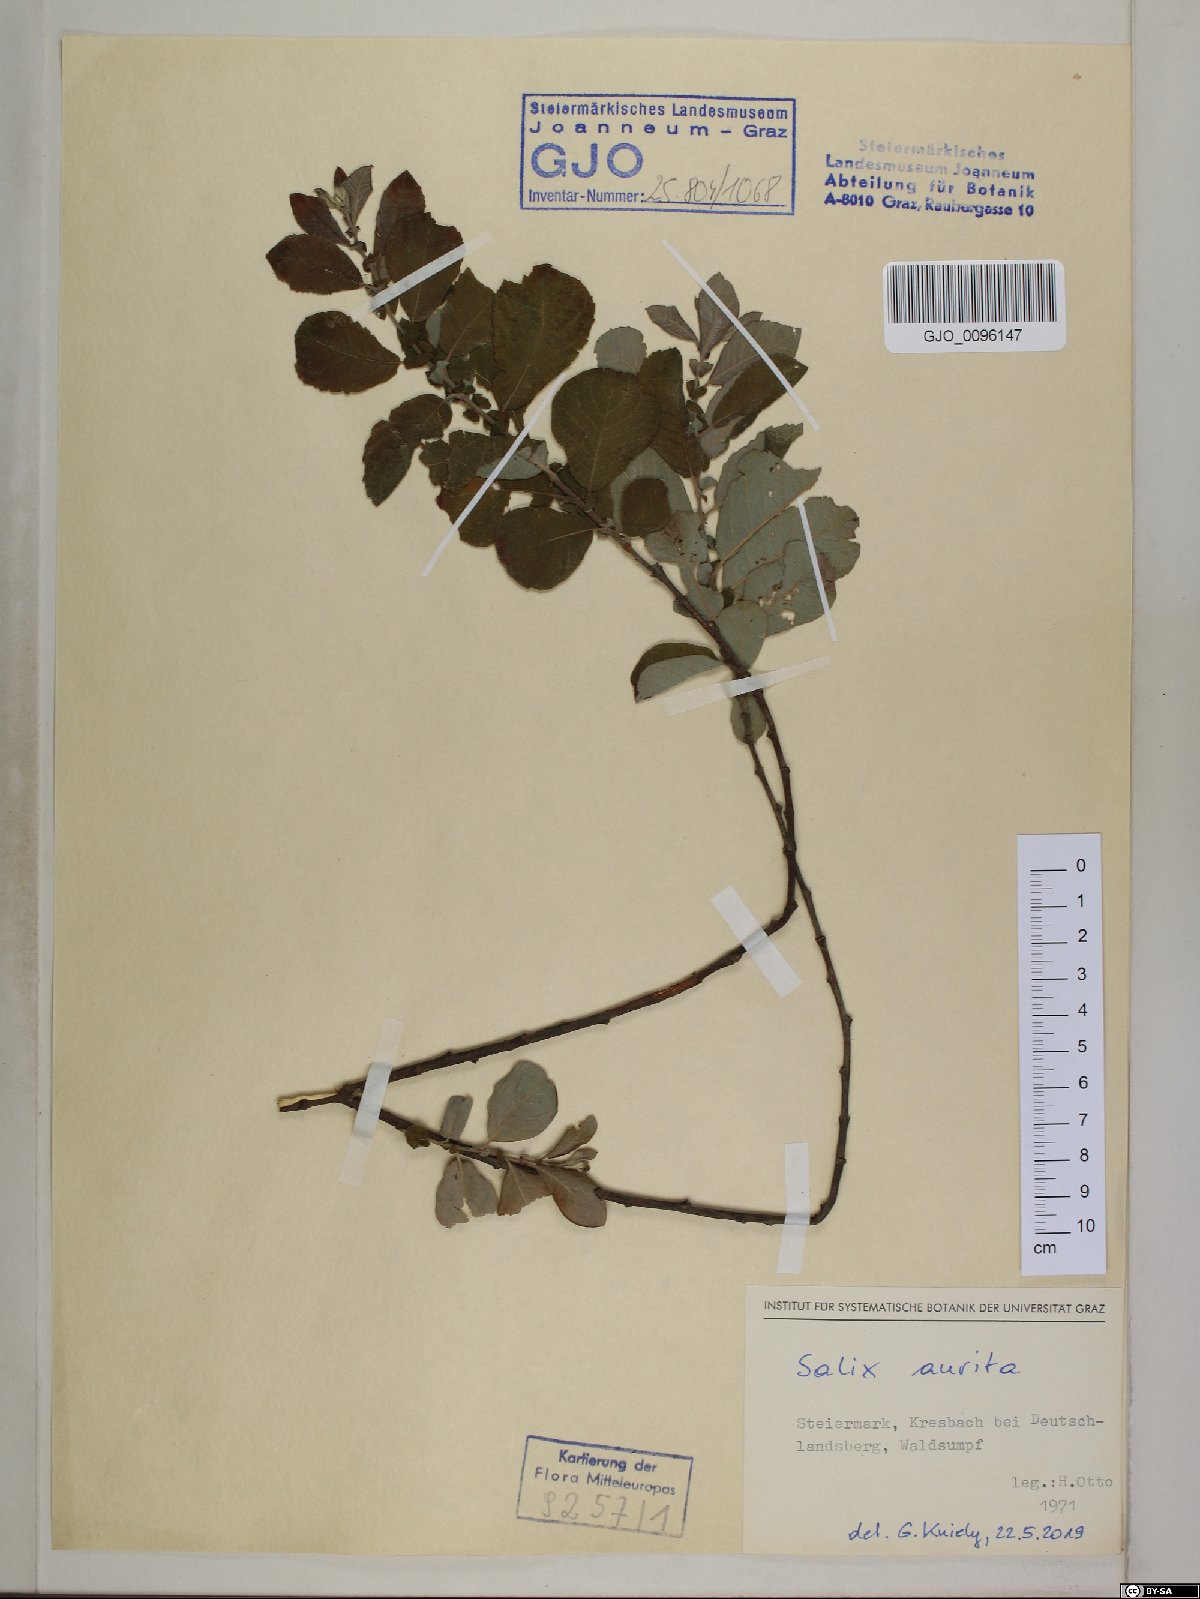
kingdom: Plantae
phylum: Tracheophyta
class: Magnoliopsida
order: Malpighiales
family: Salicaceae
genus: Salix
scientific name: Salix aurita
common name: Eared willow
